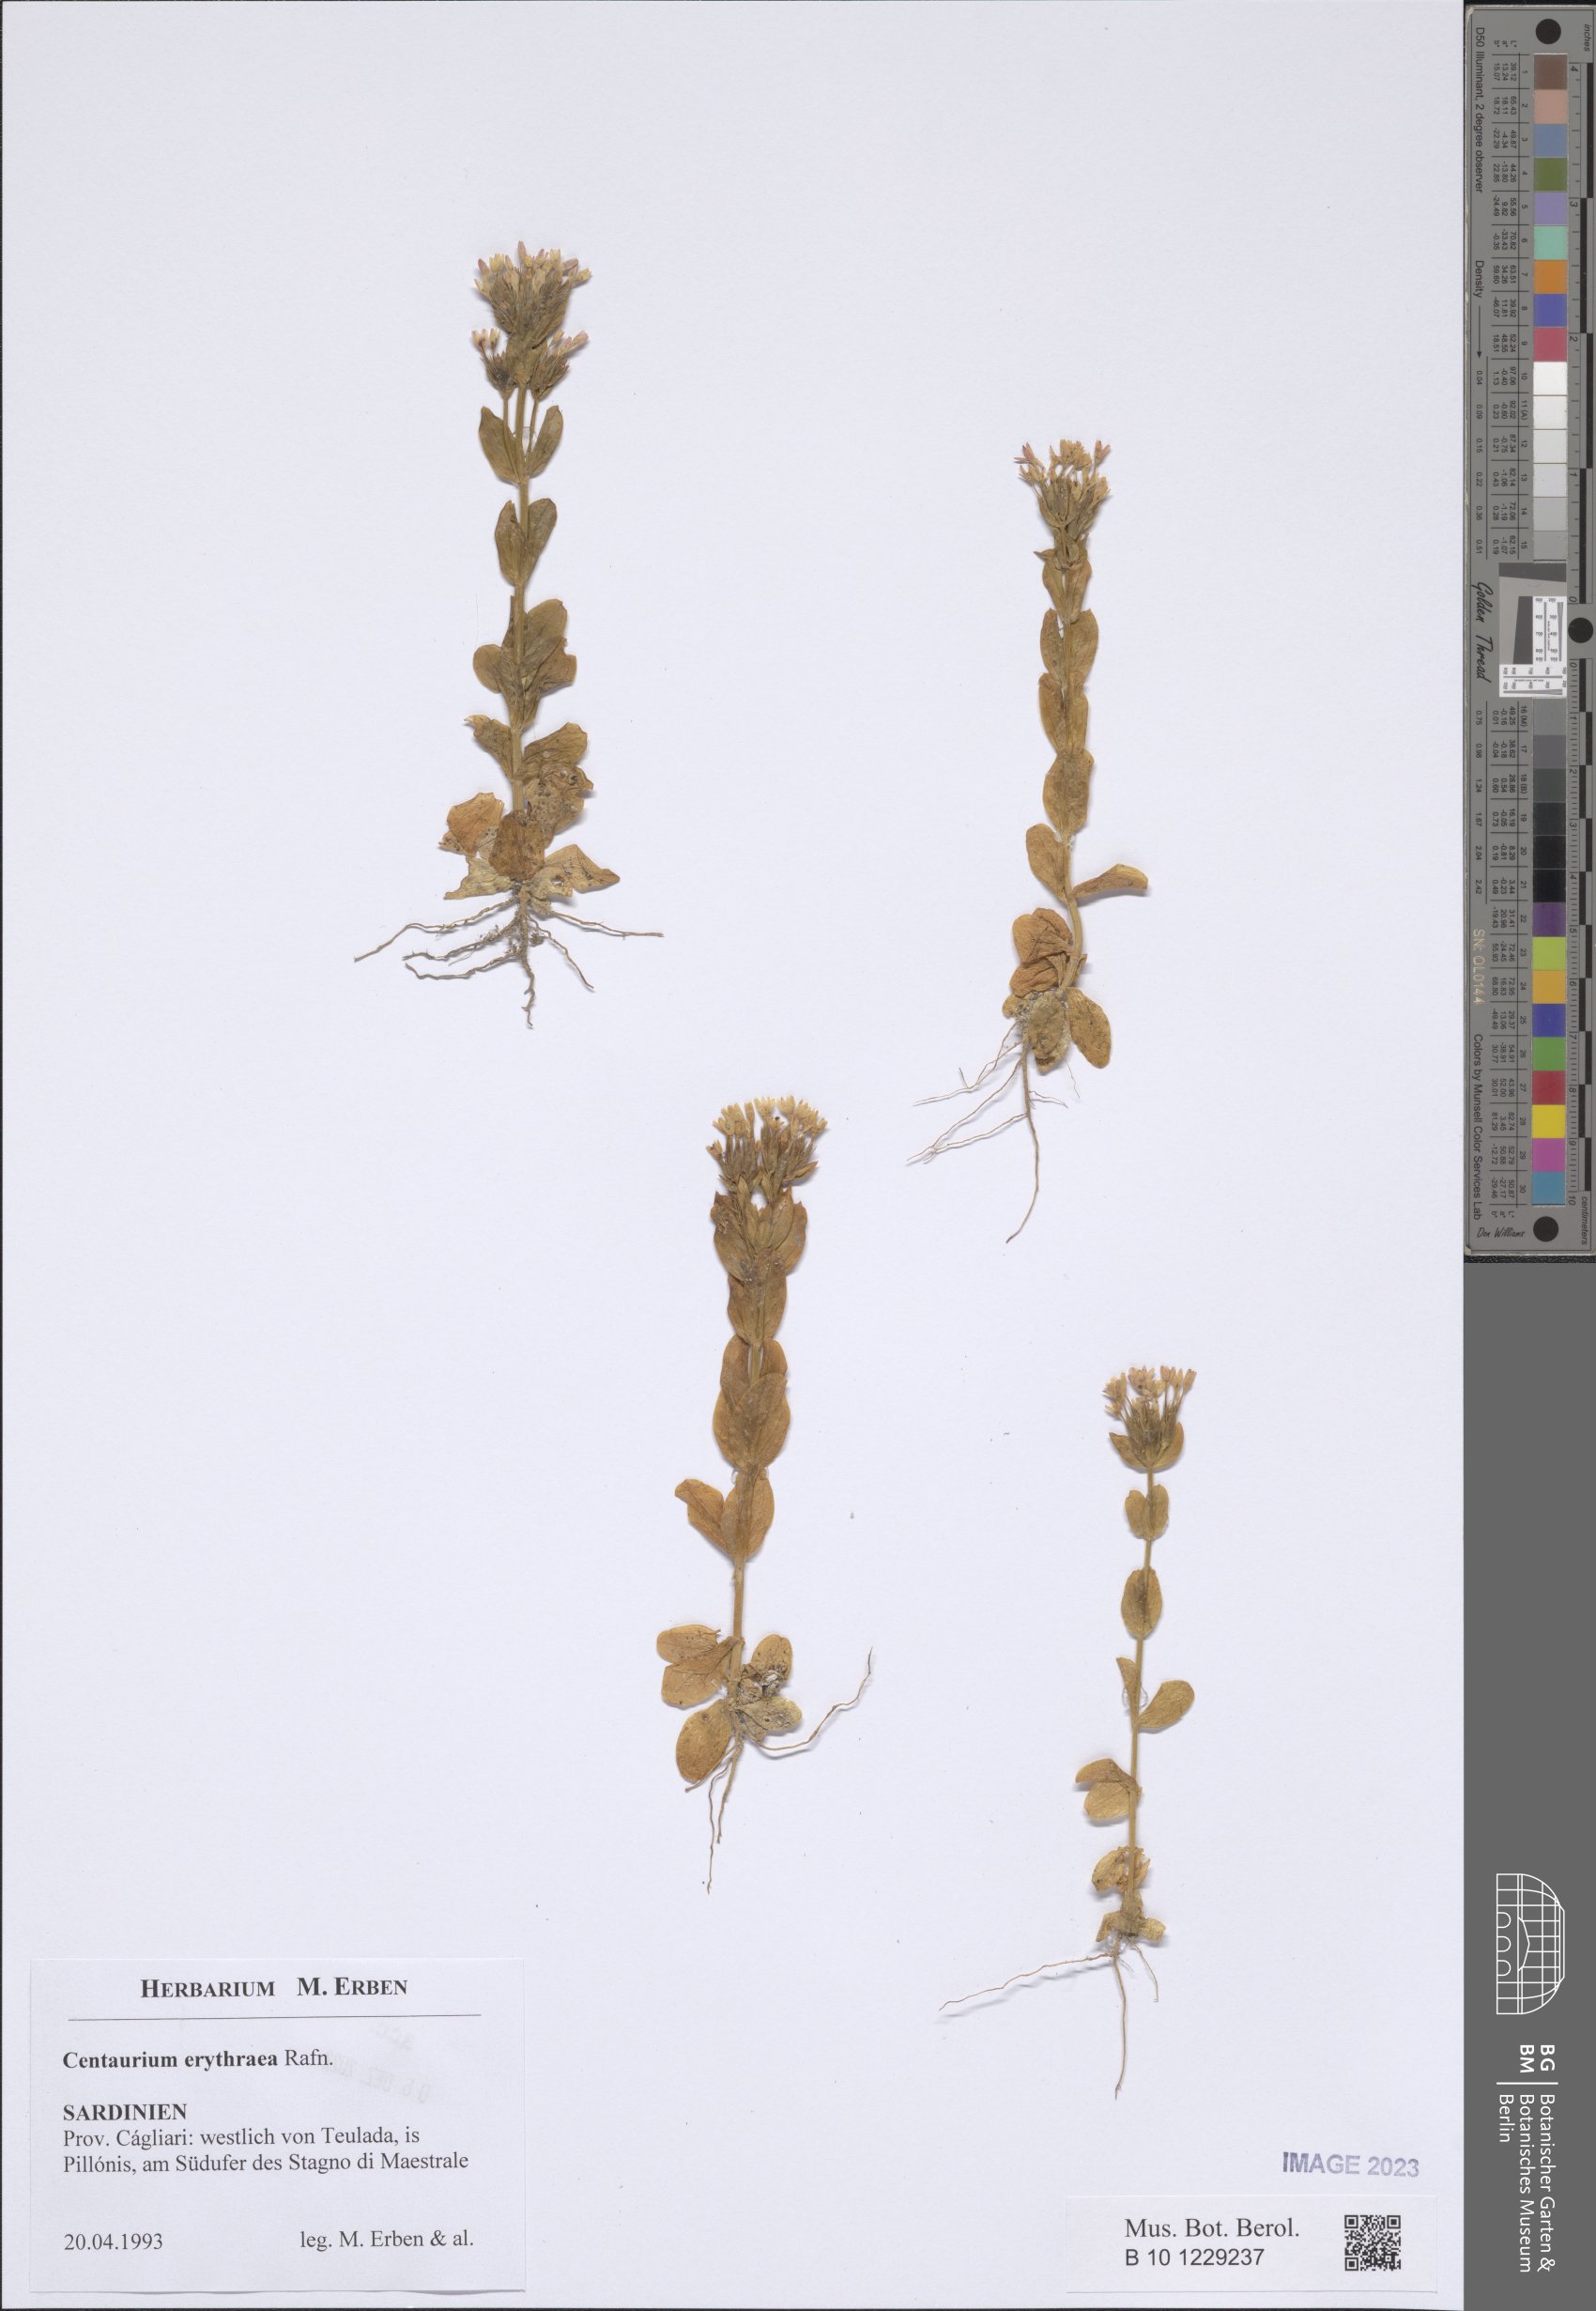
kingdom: Plantae
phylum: Tracheophyta
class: Magnoliopsida
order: Gentianales
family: Gentianaceae
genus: Centaurium
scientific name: Centaurium erythraea
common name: Common centaury
